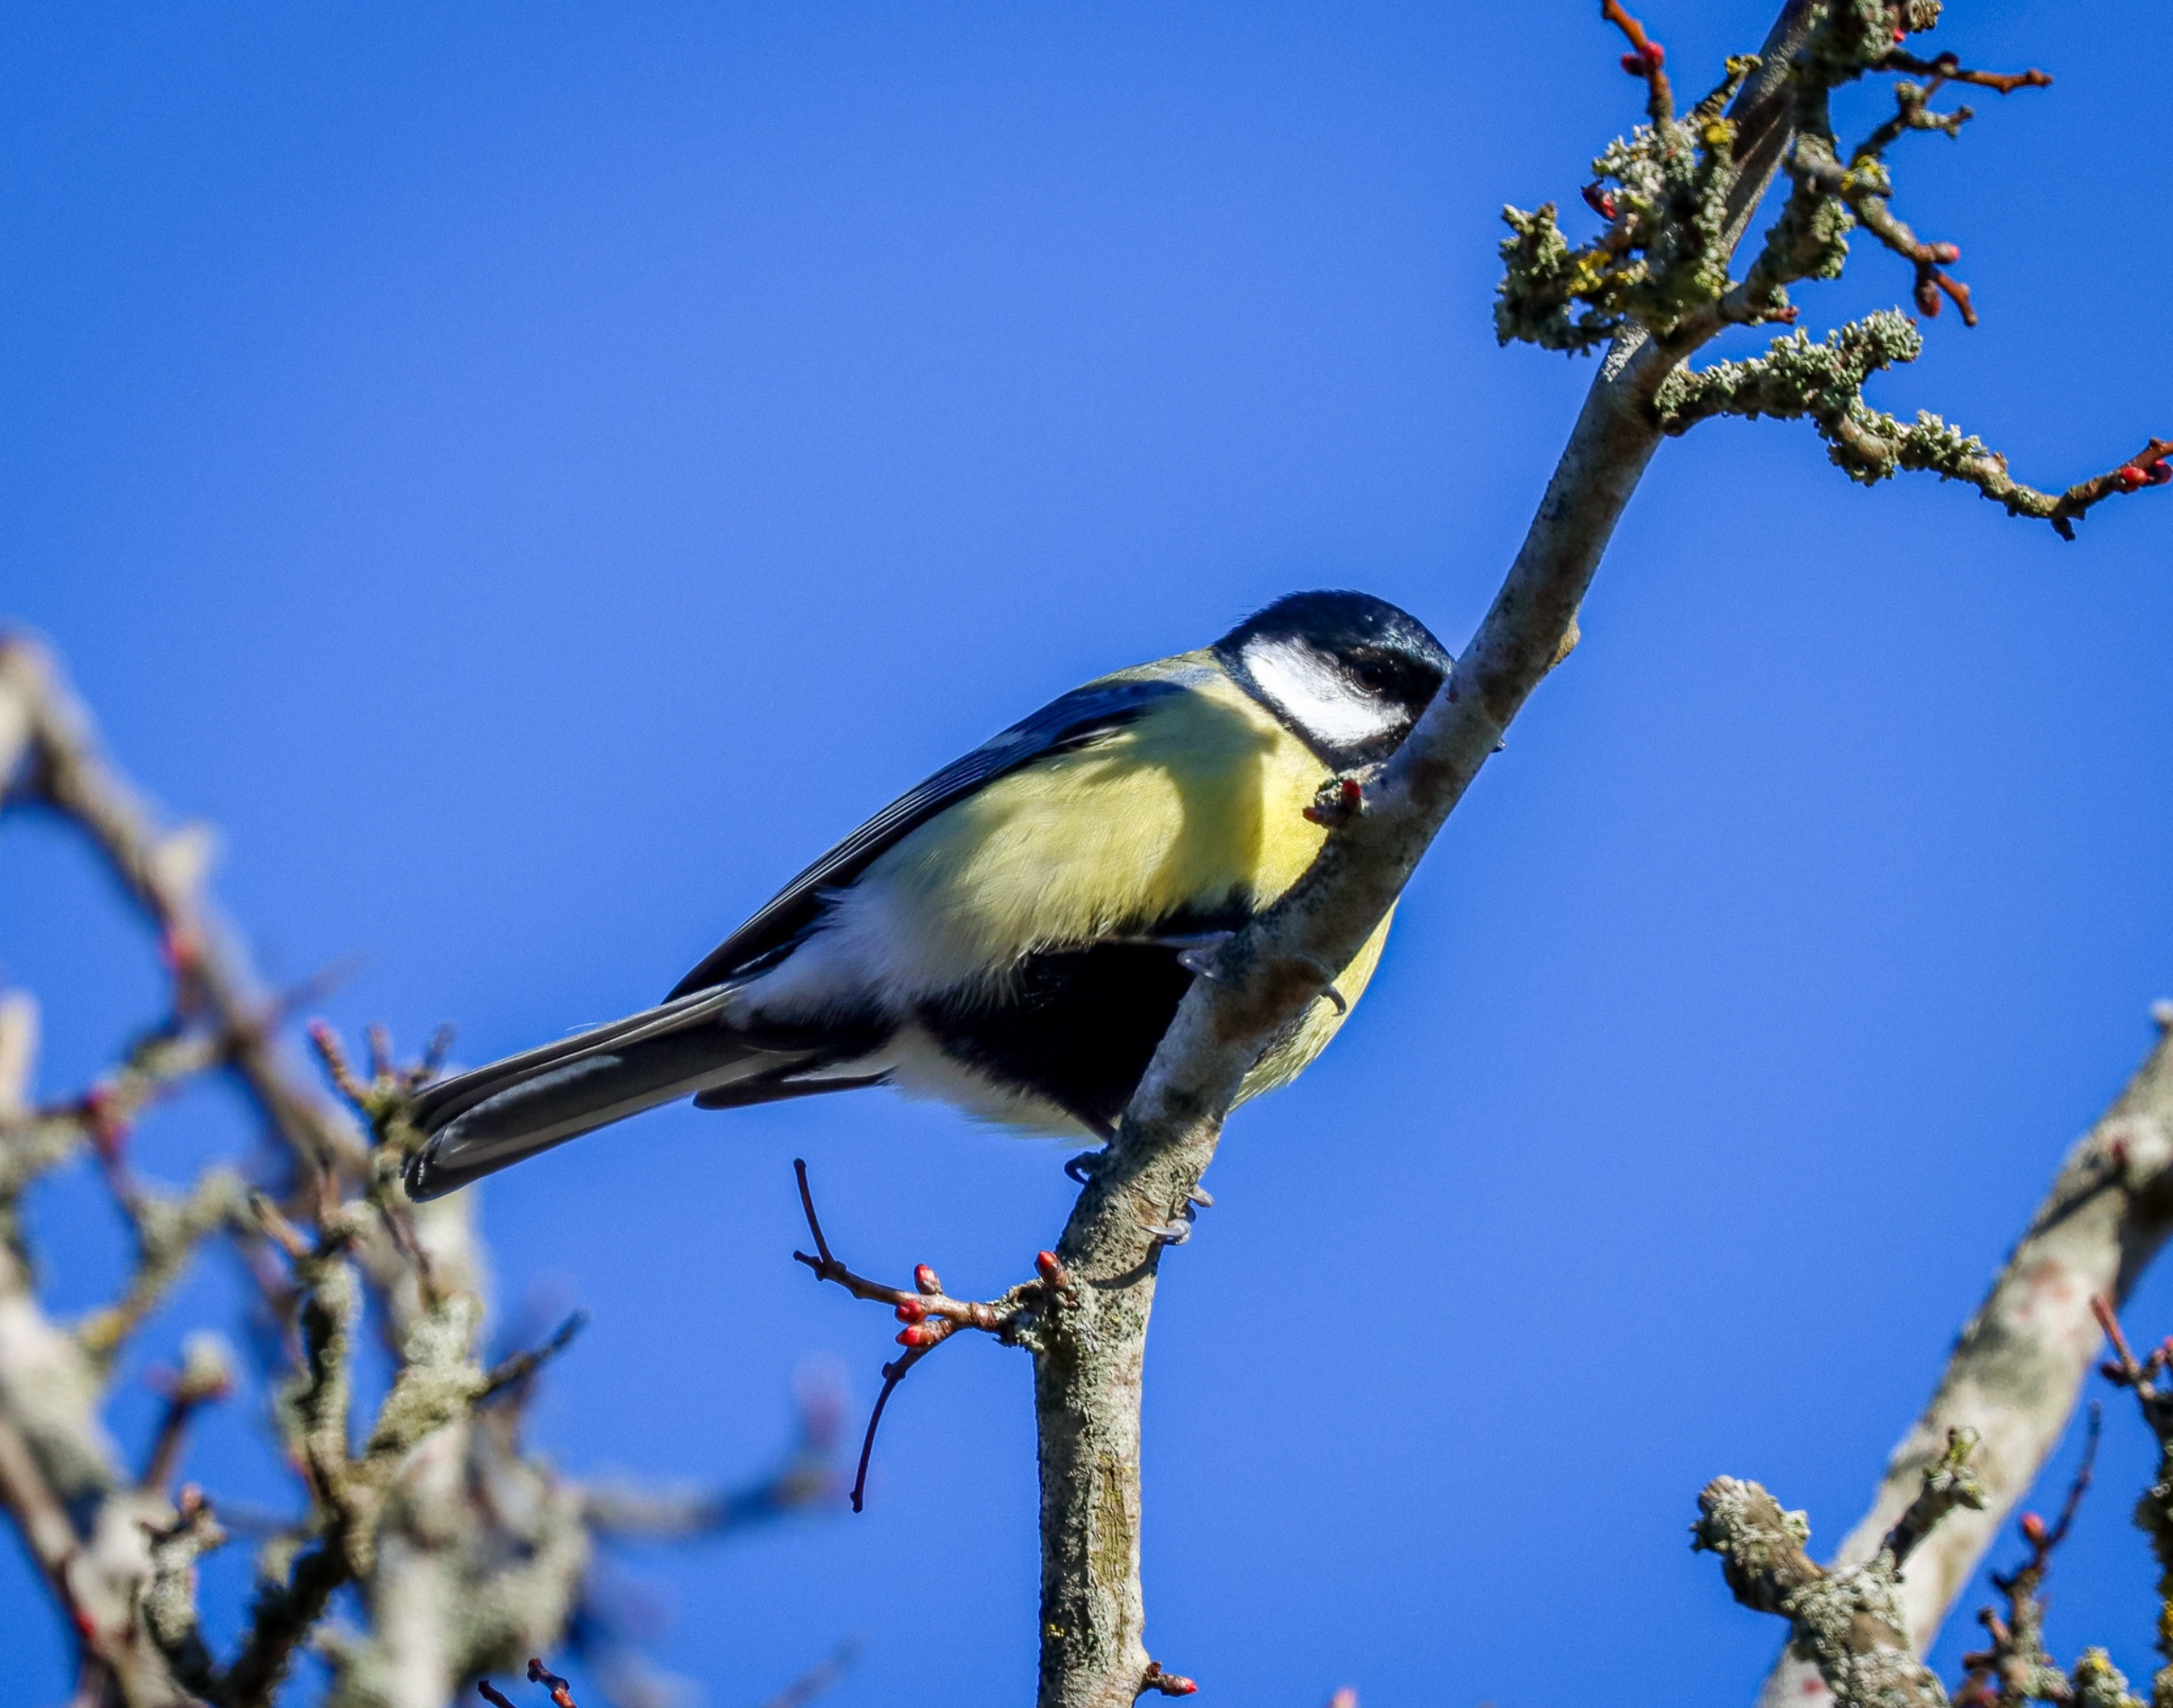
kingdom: Animalia
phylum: Chordata
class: Aves
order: Passeriformes
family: Paridae
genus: Parus
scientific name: Parus major
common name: Musvit
